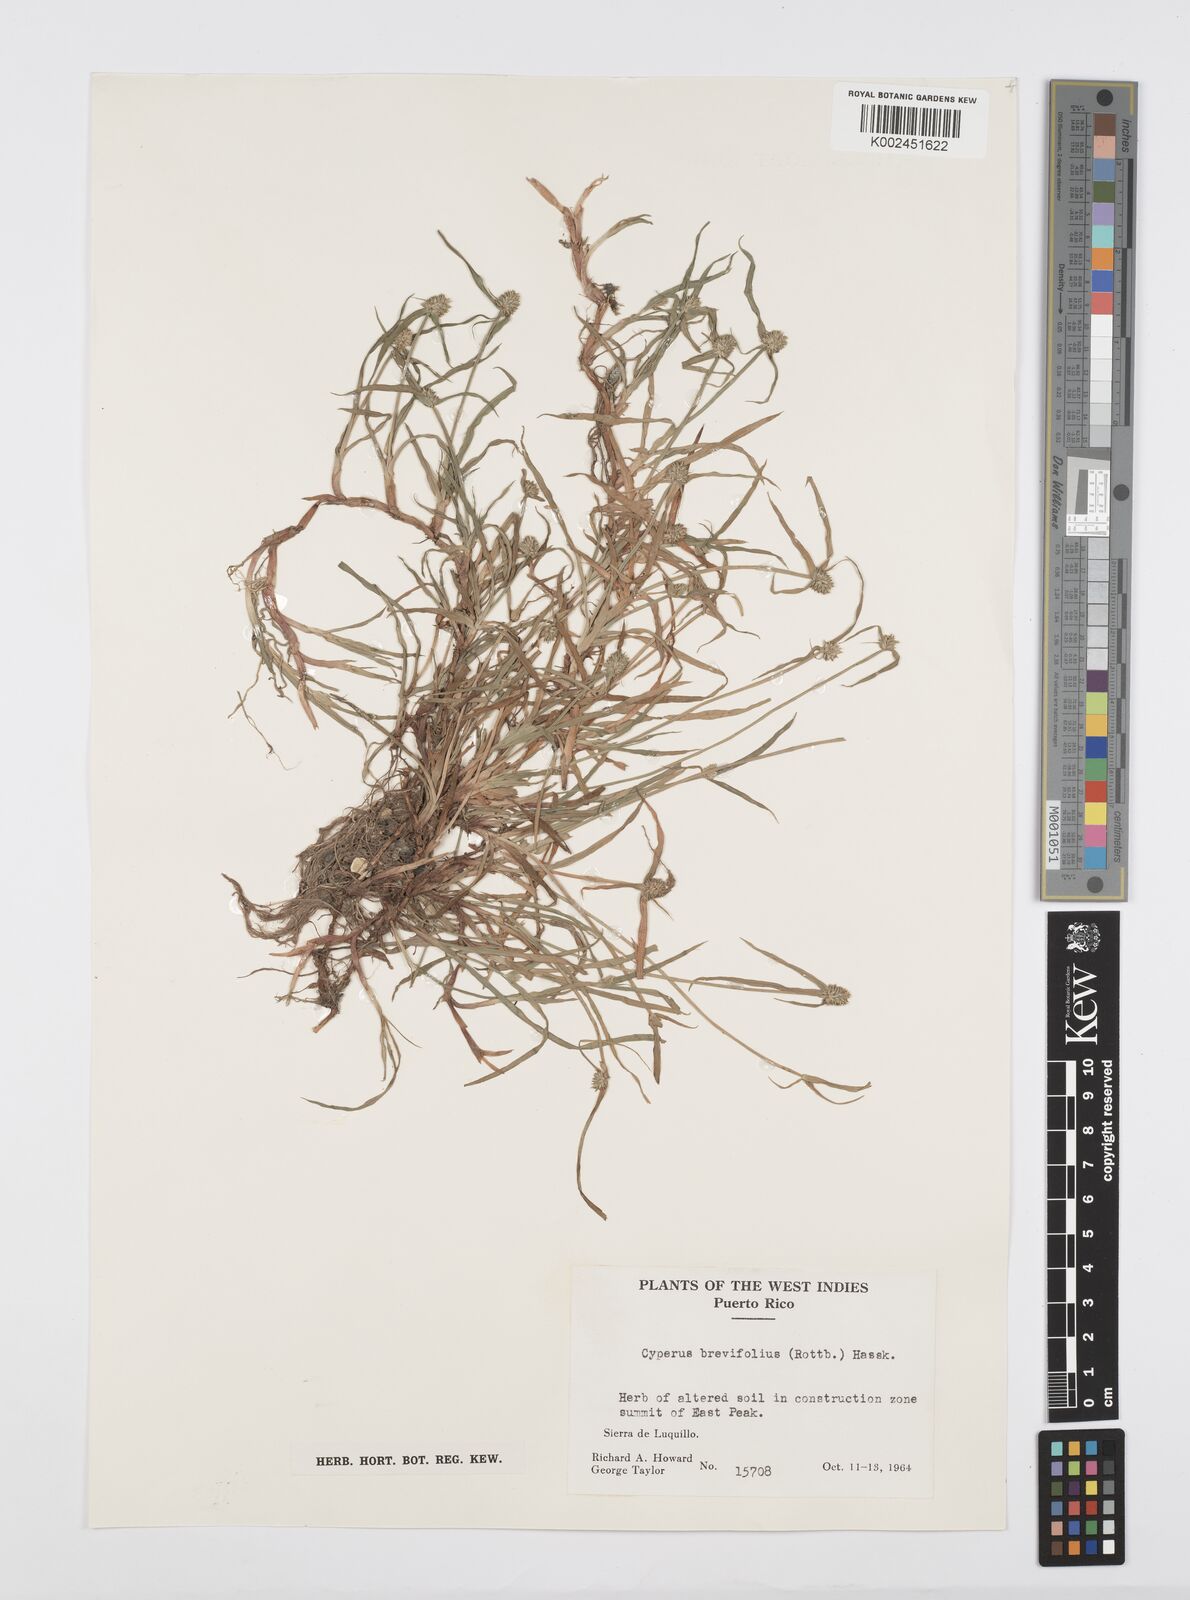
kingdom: Plantae
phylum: Tracheophyta
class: Liliopsida
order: Poales
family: Cyperaceae
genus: Cyperus
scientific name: Cyperus brevifolius
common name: Globe kyllinga
